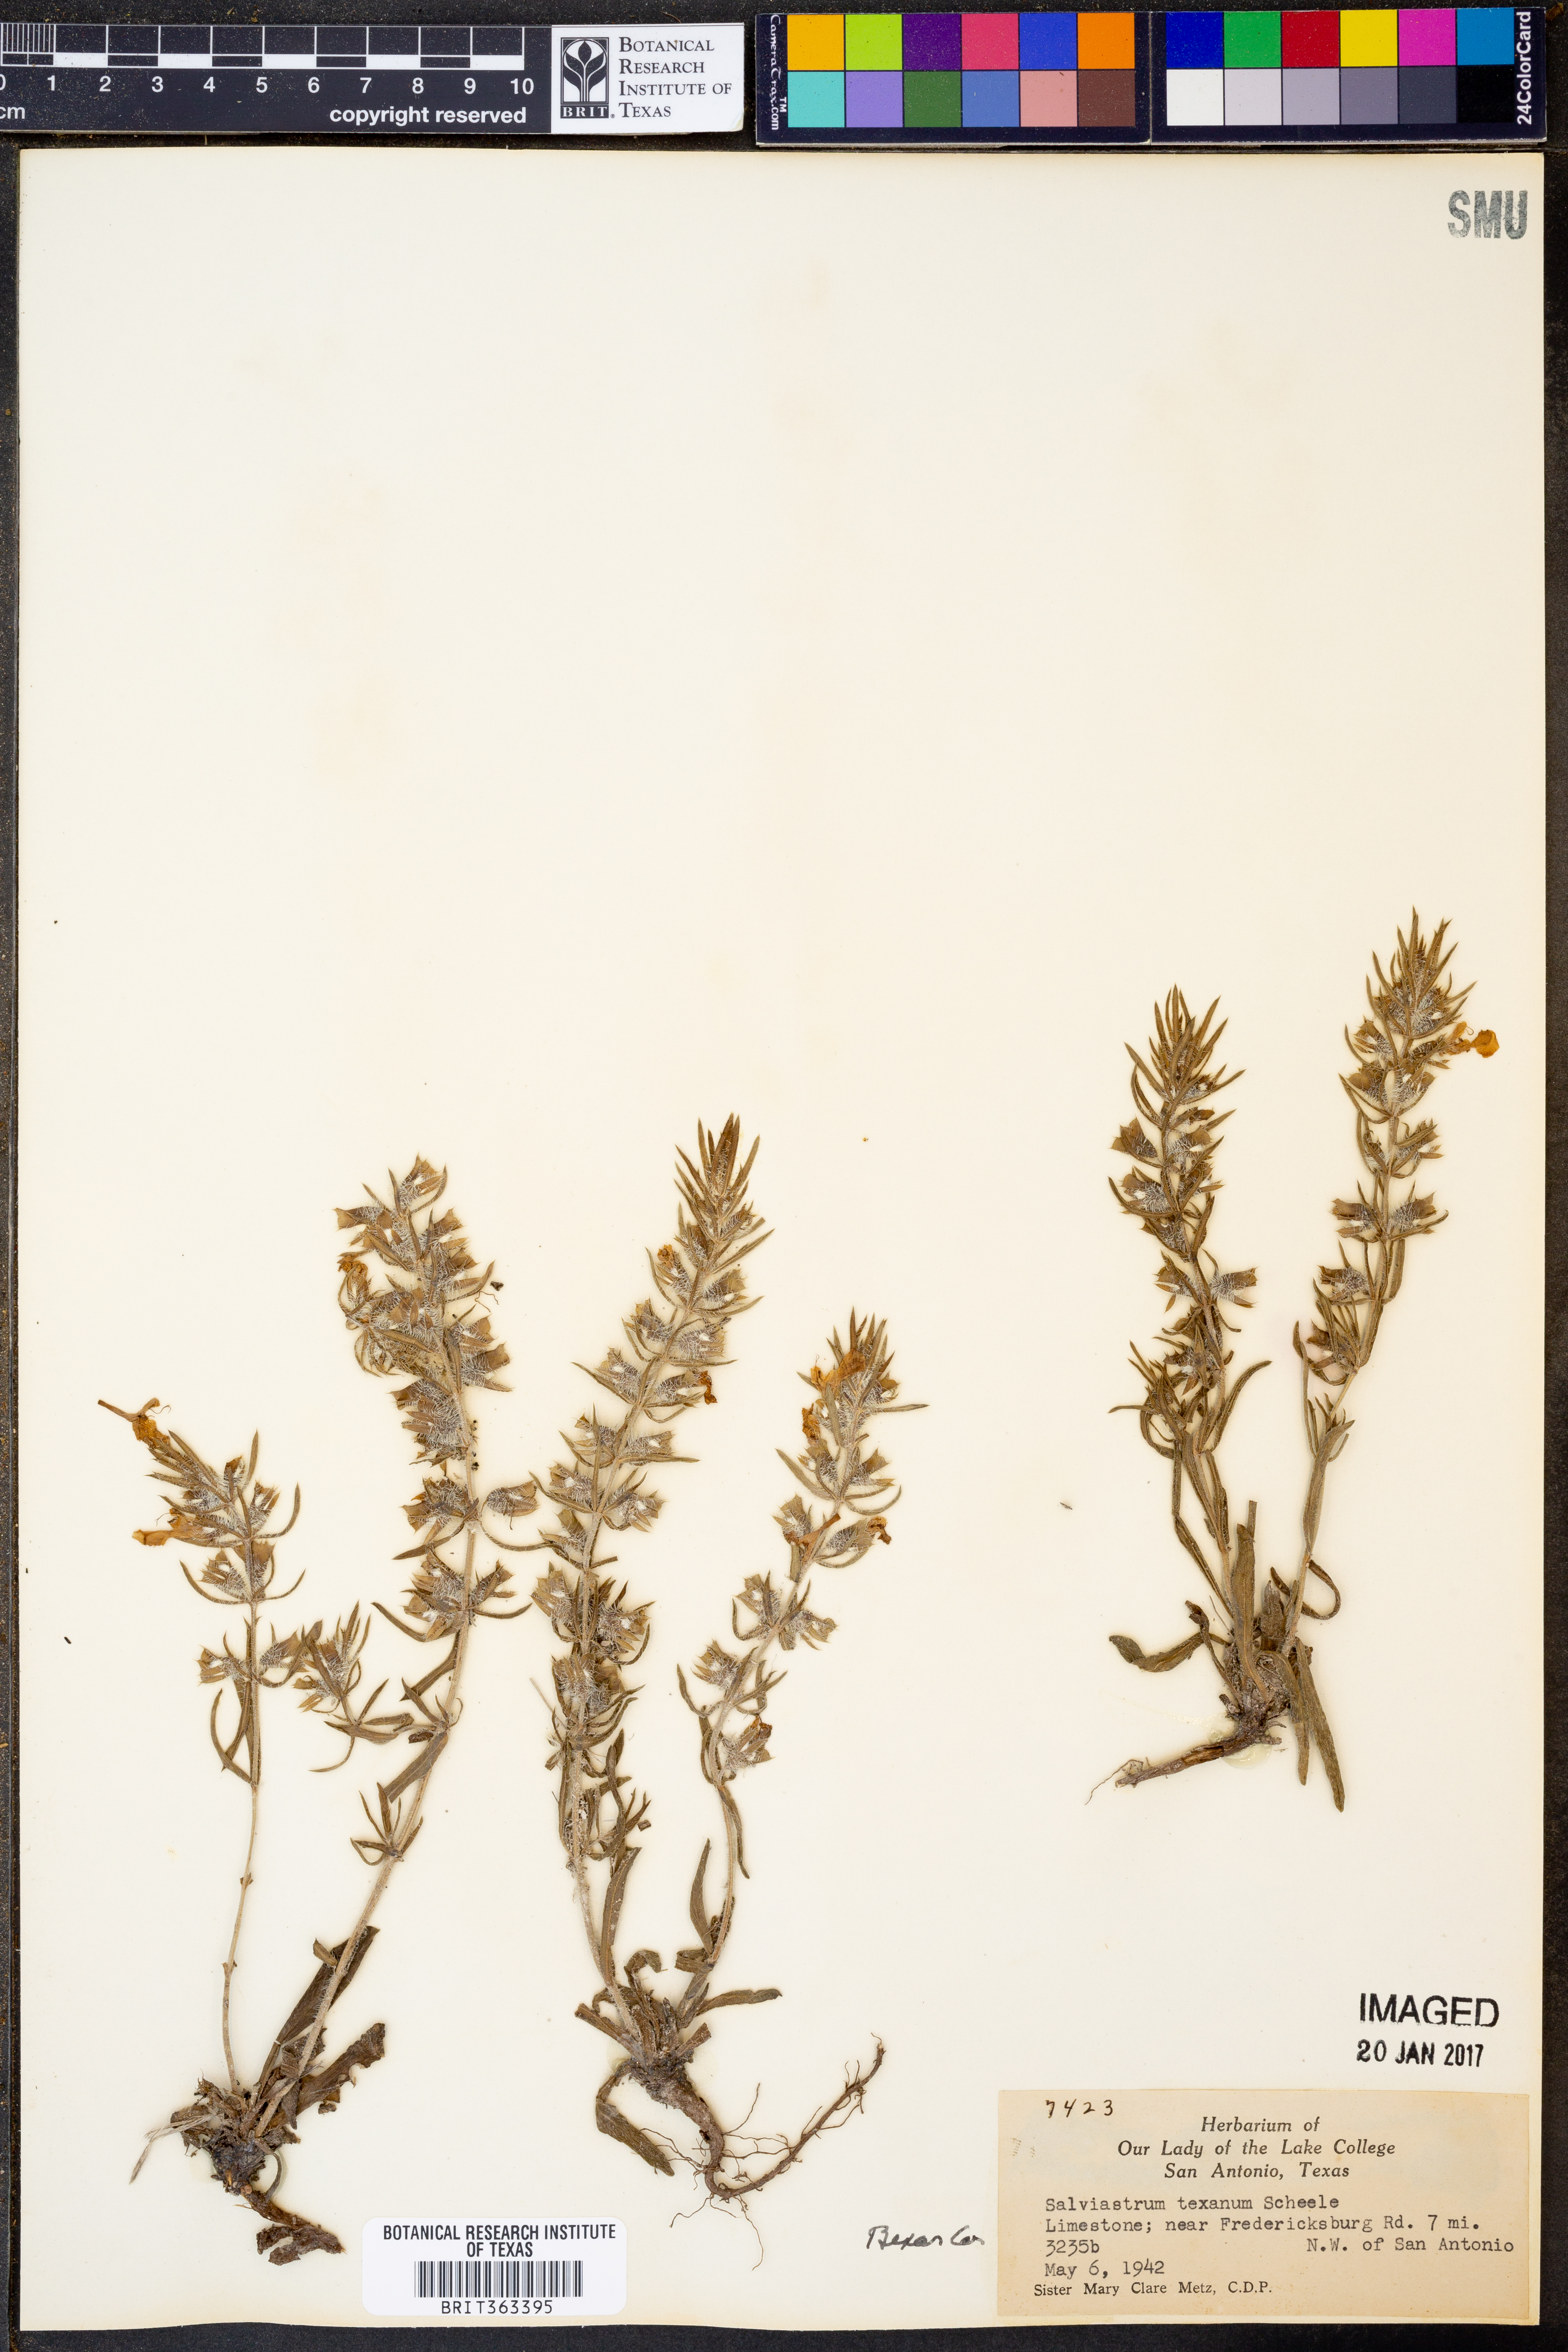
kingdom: Plantae
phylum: Tracheophyta
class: Magnoliopsida
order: Lamiales
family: Lamiaceae
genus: Salvia
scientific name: Salvia texana
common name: Texas sage
